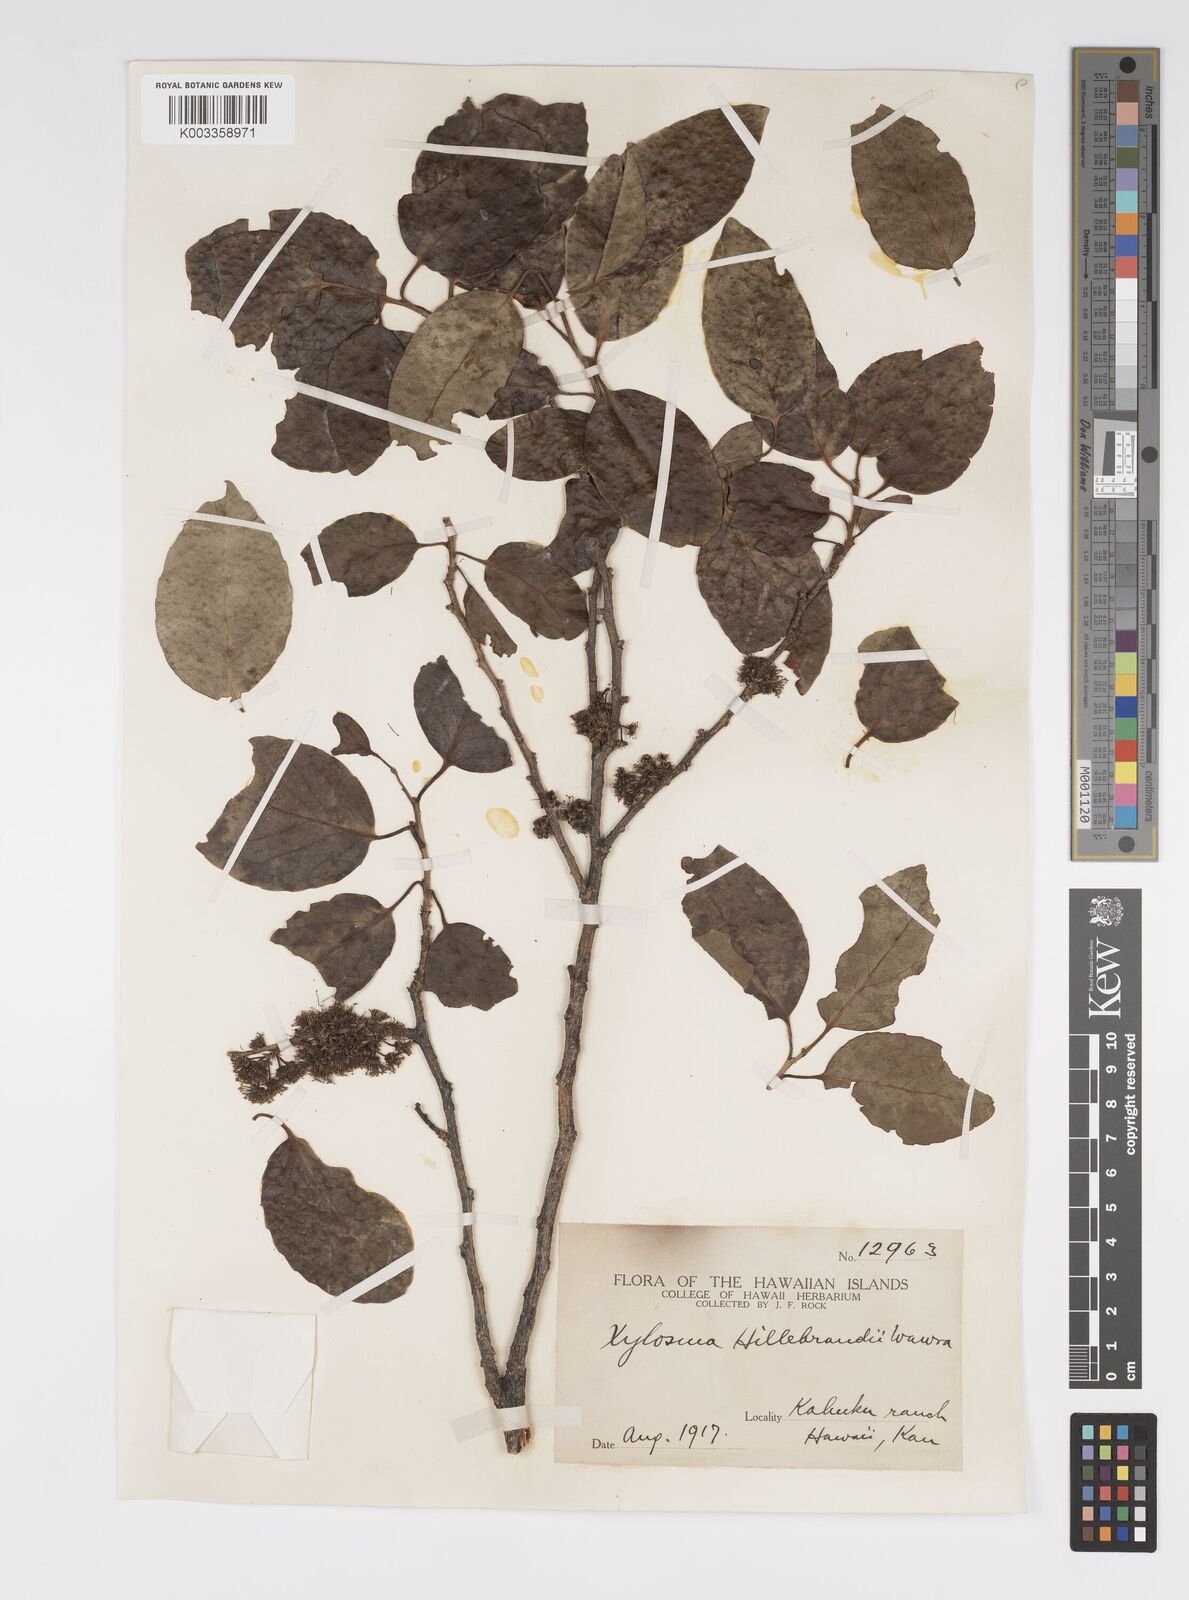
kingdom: Plantae
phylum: Tracheophyta
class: Magnoliopsida
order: Malpighiales
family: Salicaceae
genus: Xylosma
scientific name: Xylosma hawaiense
